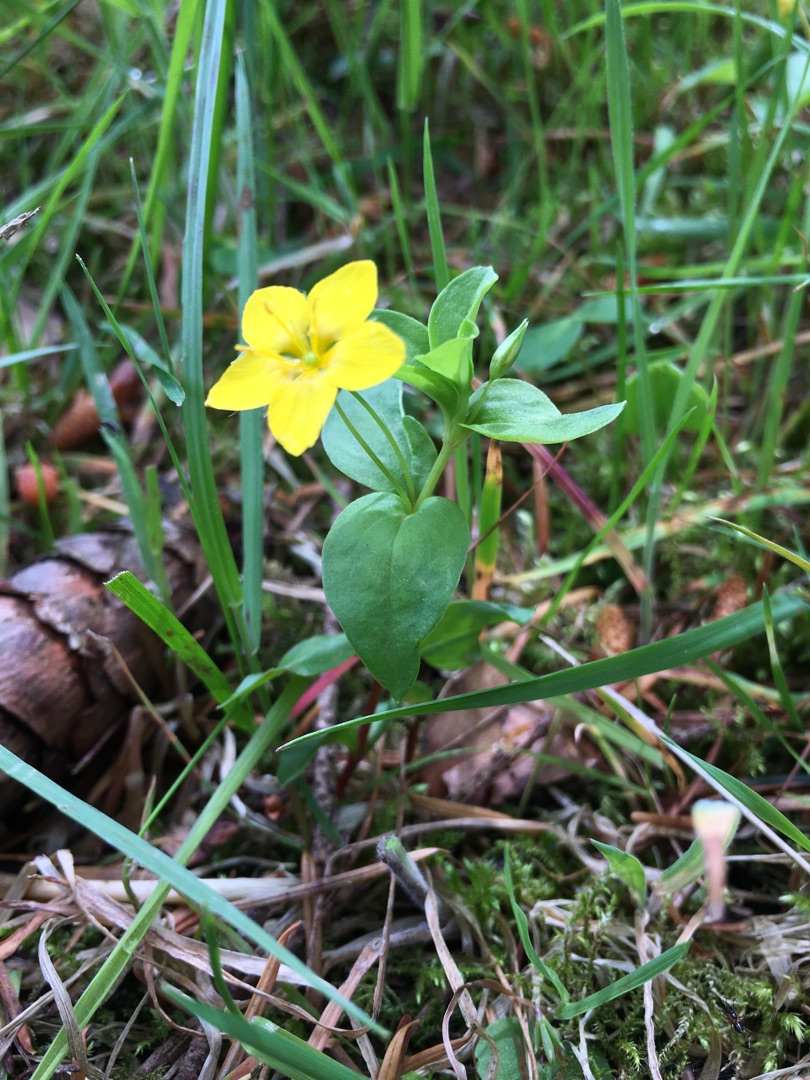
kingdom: Plantae
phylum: Tracheophyta
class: Magnoliopsida
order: Ericales
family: Primulaceae
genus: Lysimachia
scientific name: Lysimachia nemorum
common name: Lund-fredløs
